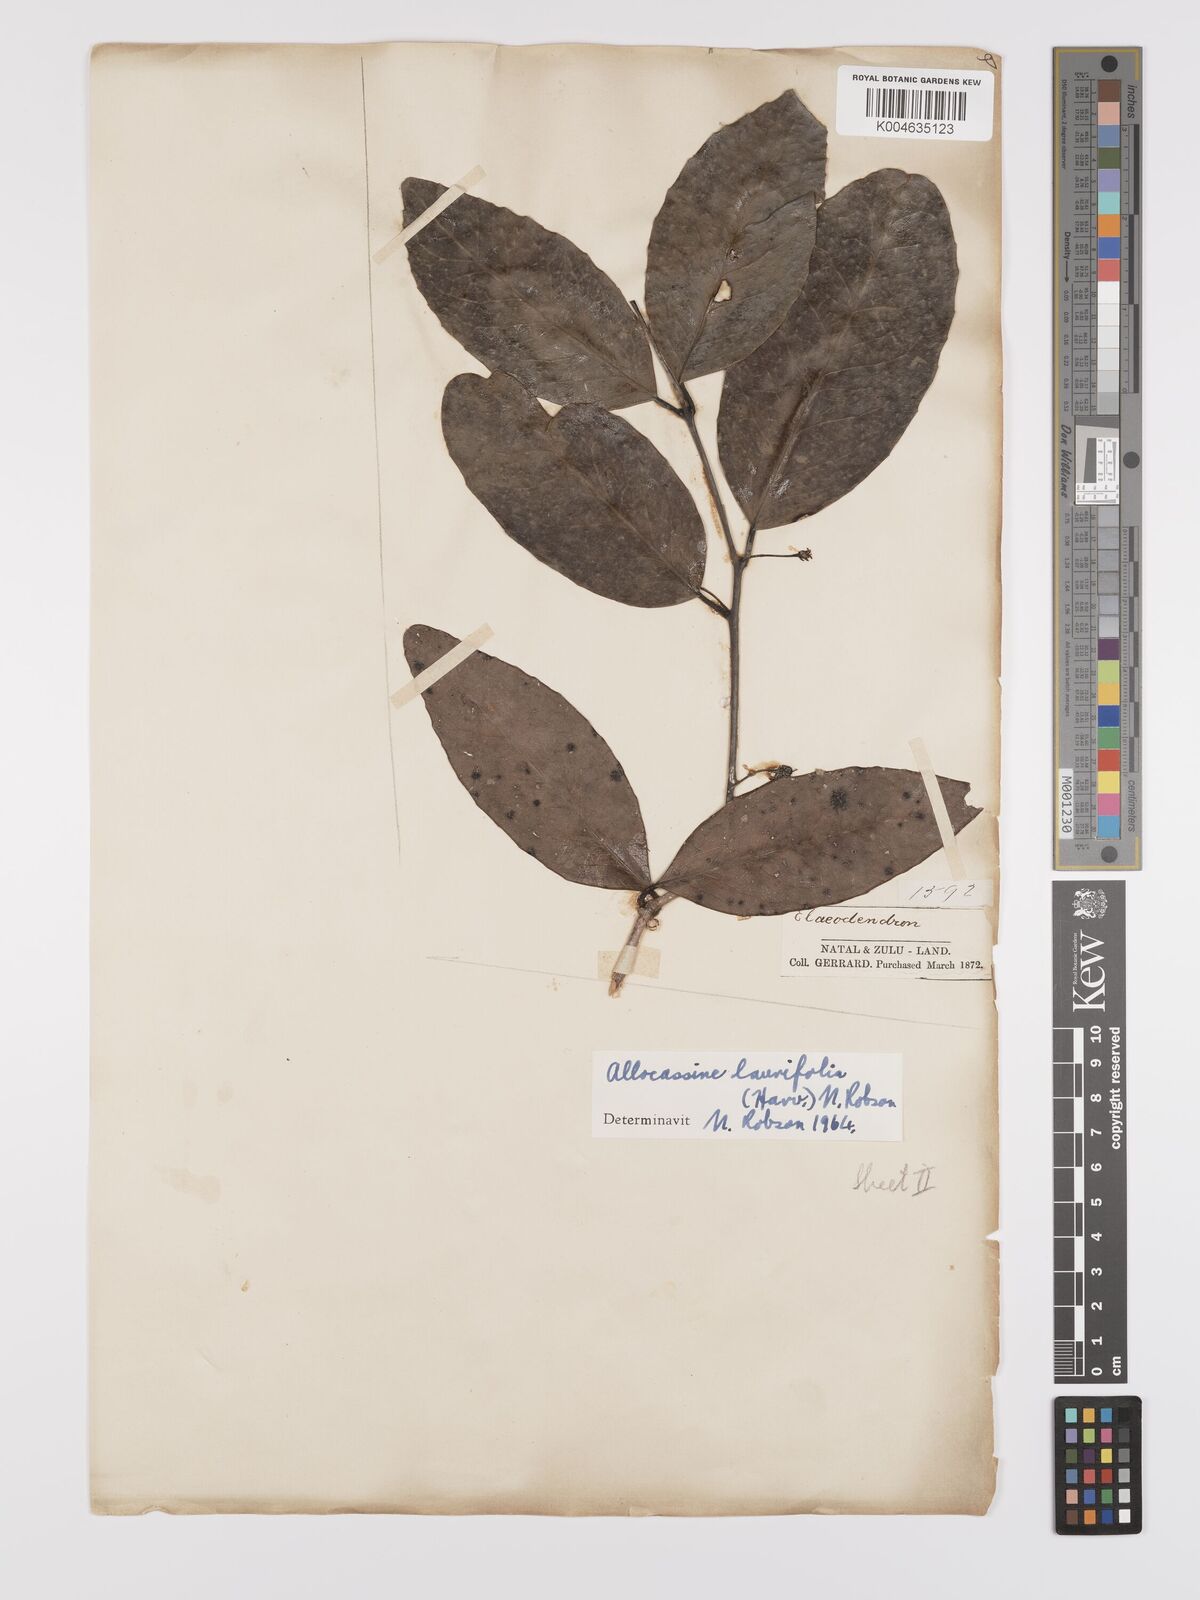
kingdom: Plantae
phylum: Tracheophyta
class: Magnoliopsida
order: Celastrales
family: Celastraceae
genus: Allocassine
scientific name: Allocassine
